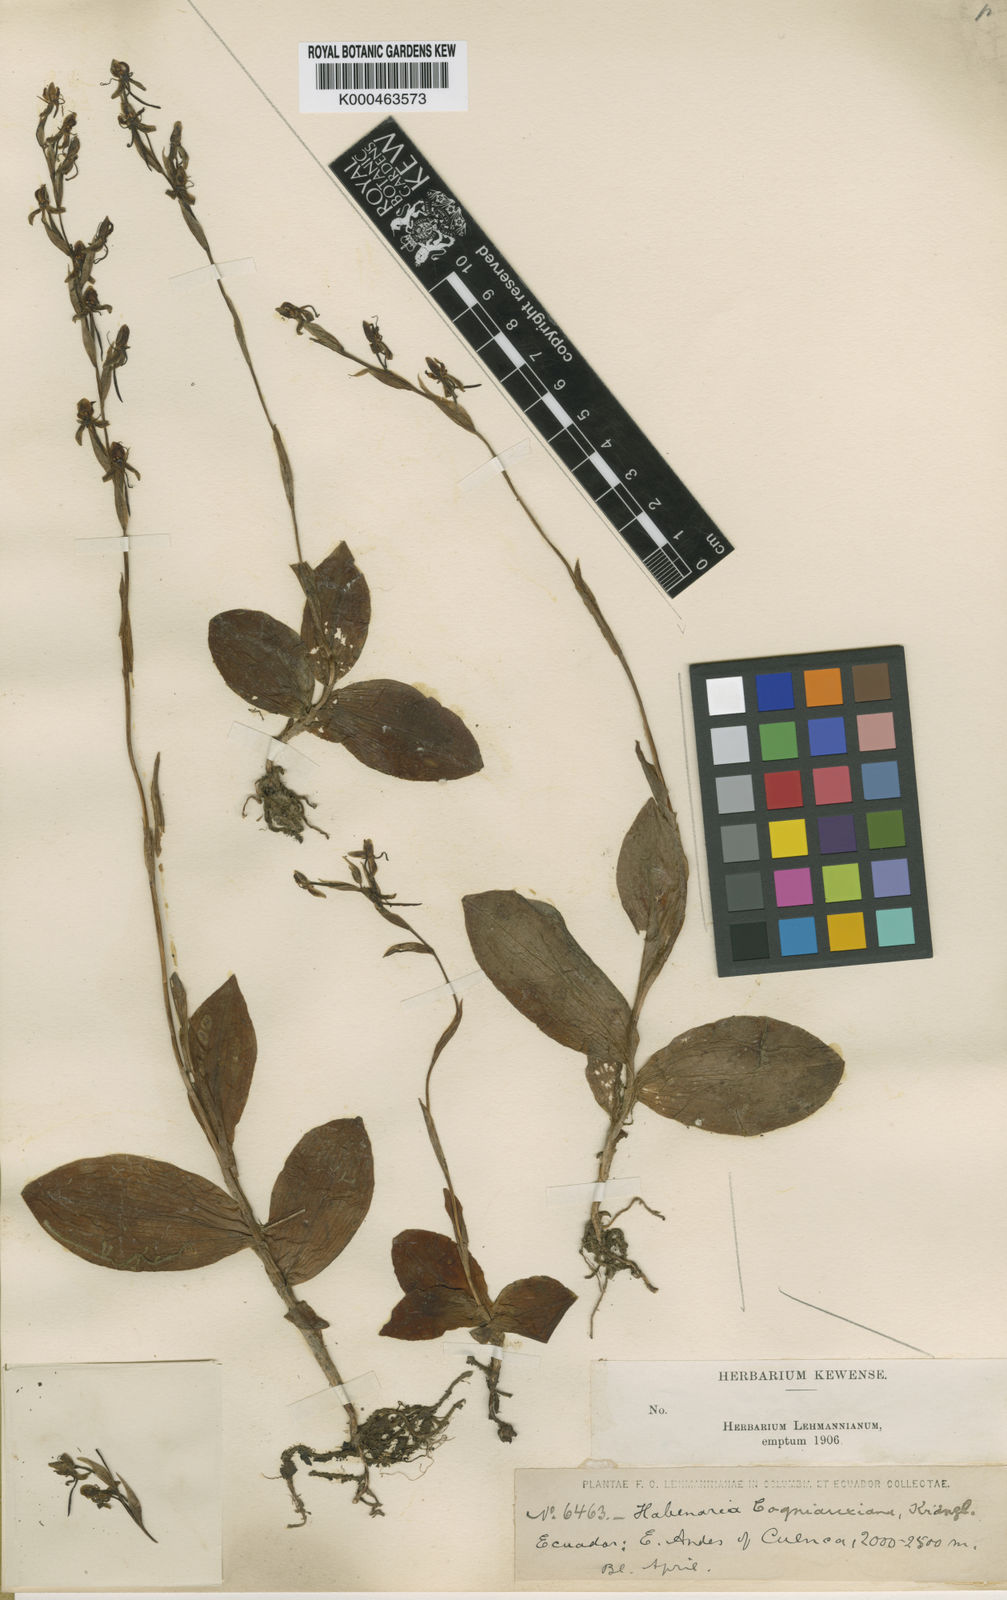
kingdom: Plantae
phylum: Tracheophyta
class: Liliopsida
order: Asparagales
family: Orchidaceae
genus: Habenaria
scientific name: Habenaria
